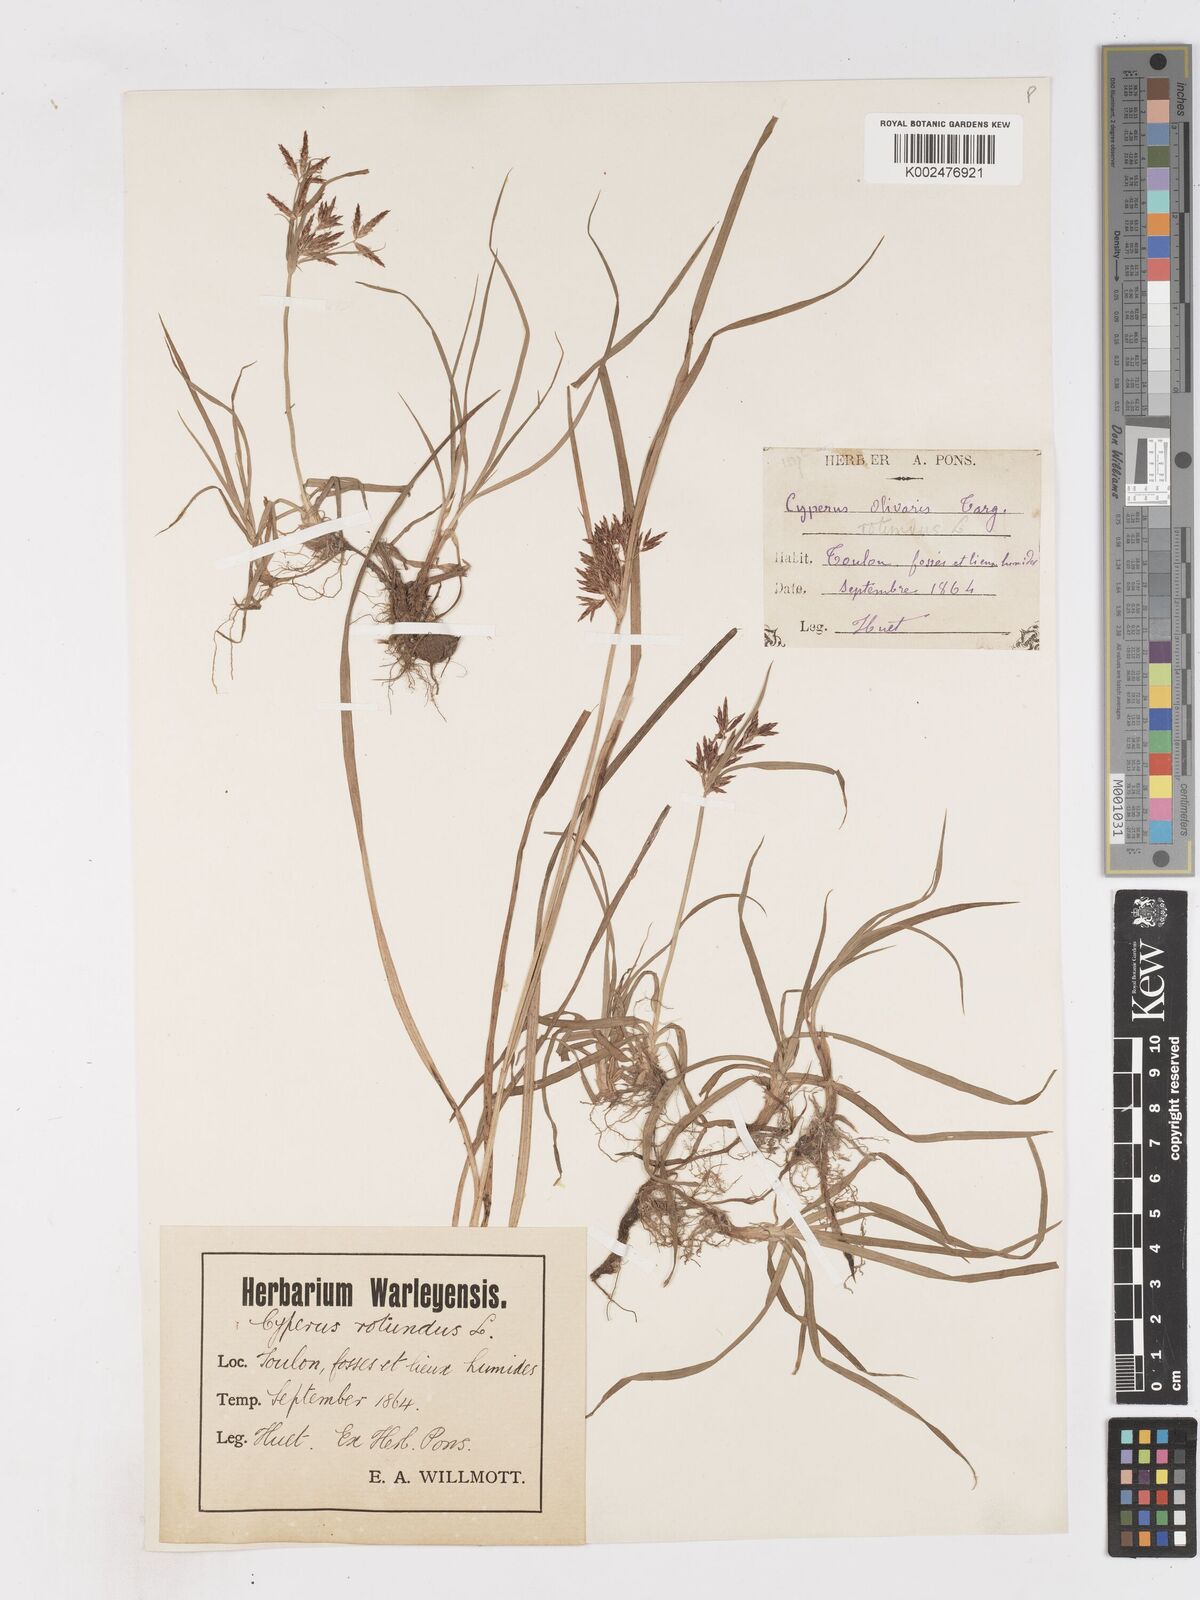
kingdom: Plantae
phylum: Tracheophyta
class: Liliopsida
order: Poales
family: Cyperaceae
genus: Cyperus
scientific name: Cyperus rotundus
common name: Nutgrass
